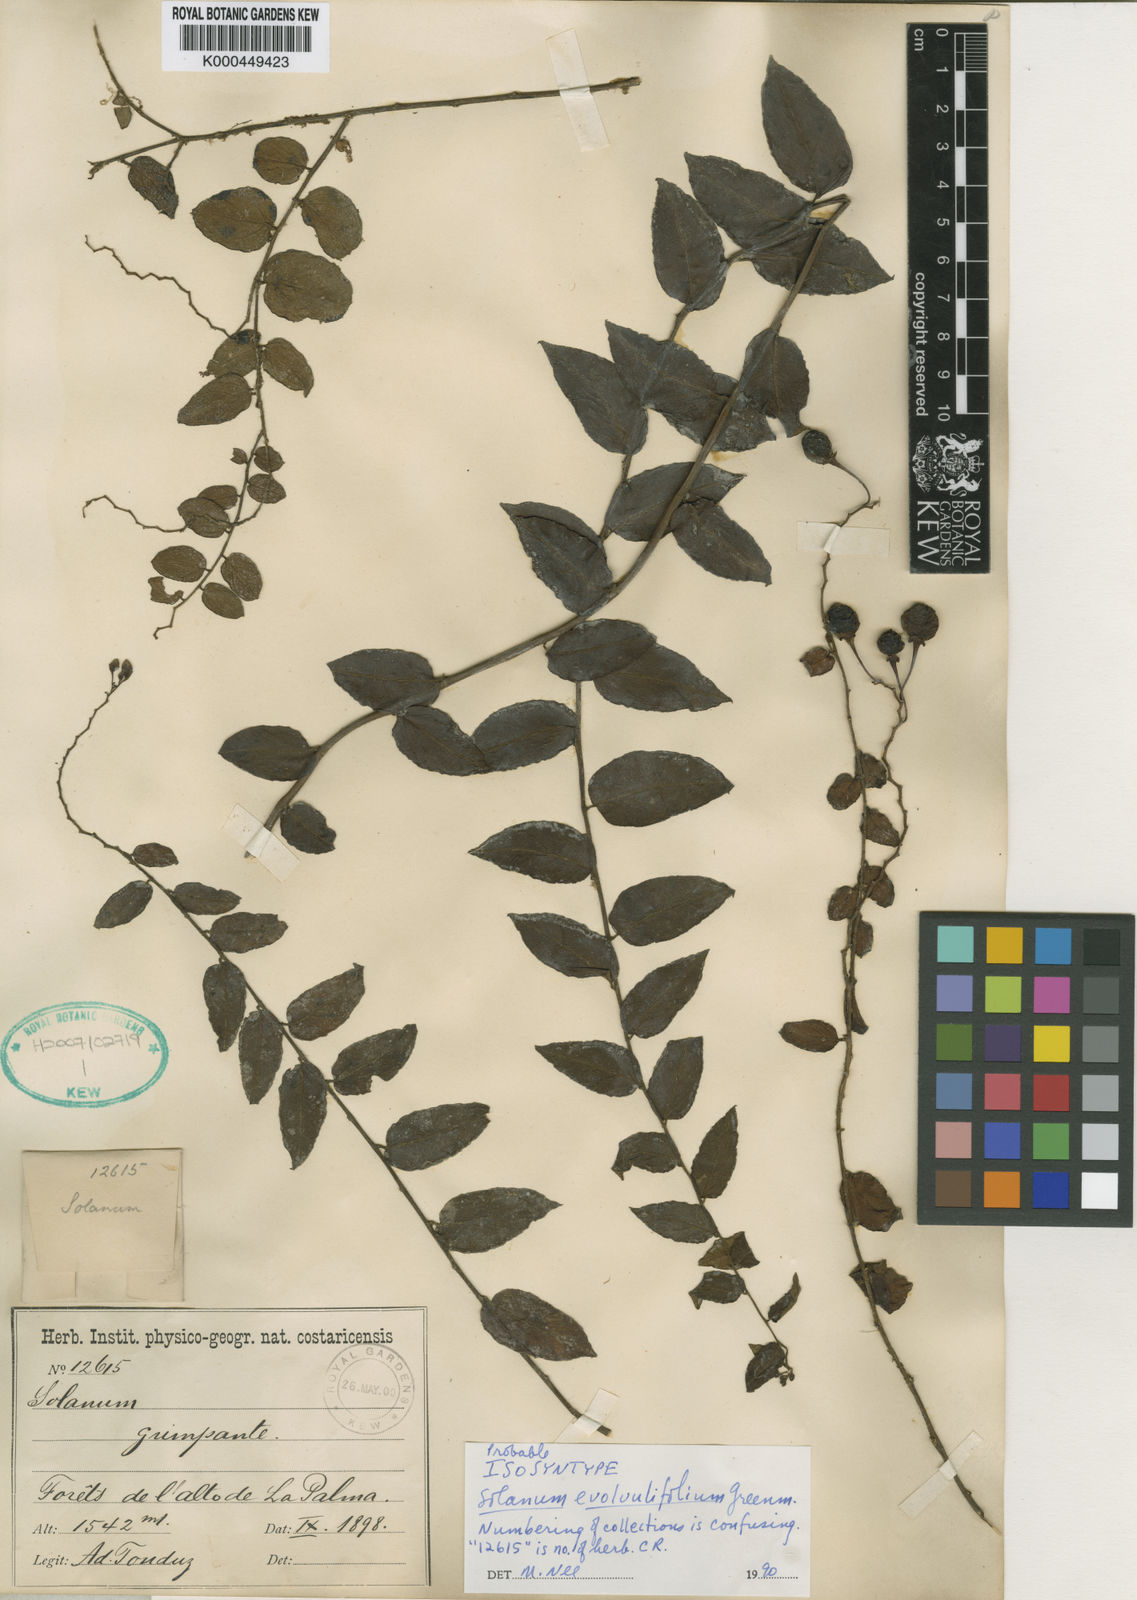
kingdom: Plantae
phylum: Tracheophyta
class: Magnoliopsida
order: Solanales
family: Solanaceae
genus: Solanum
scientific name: Solanum evolvulifolium
